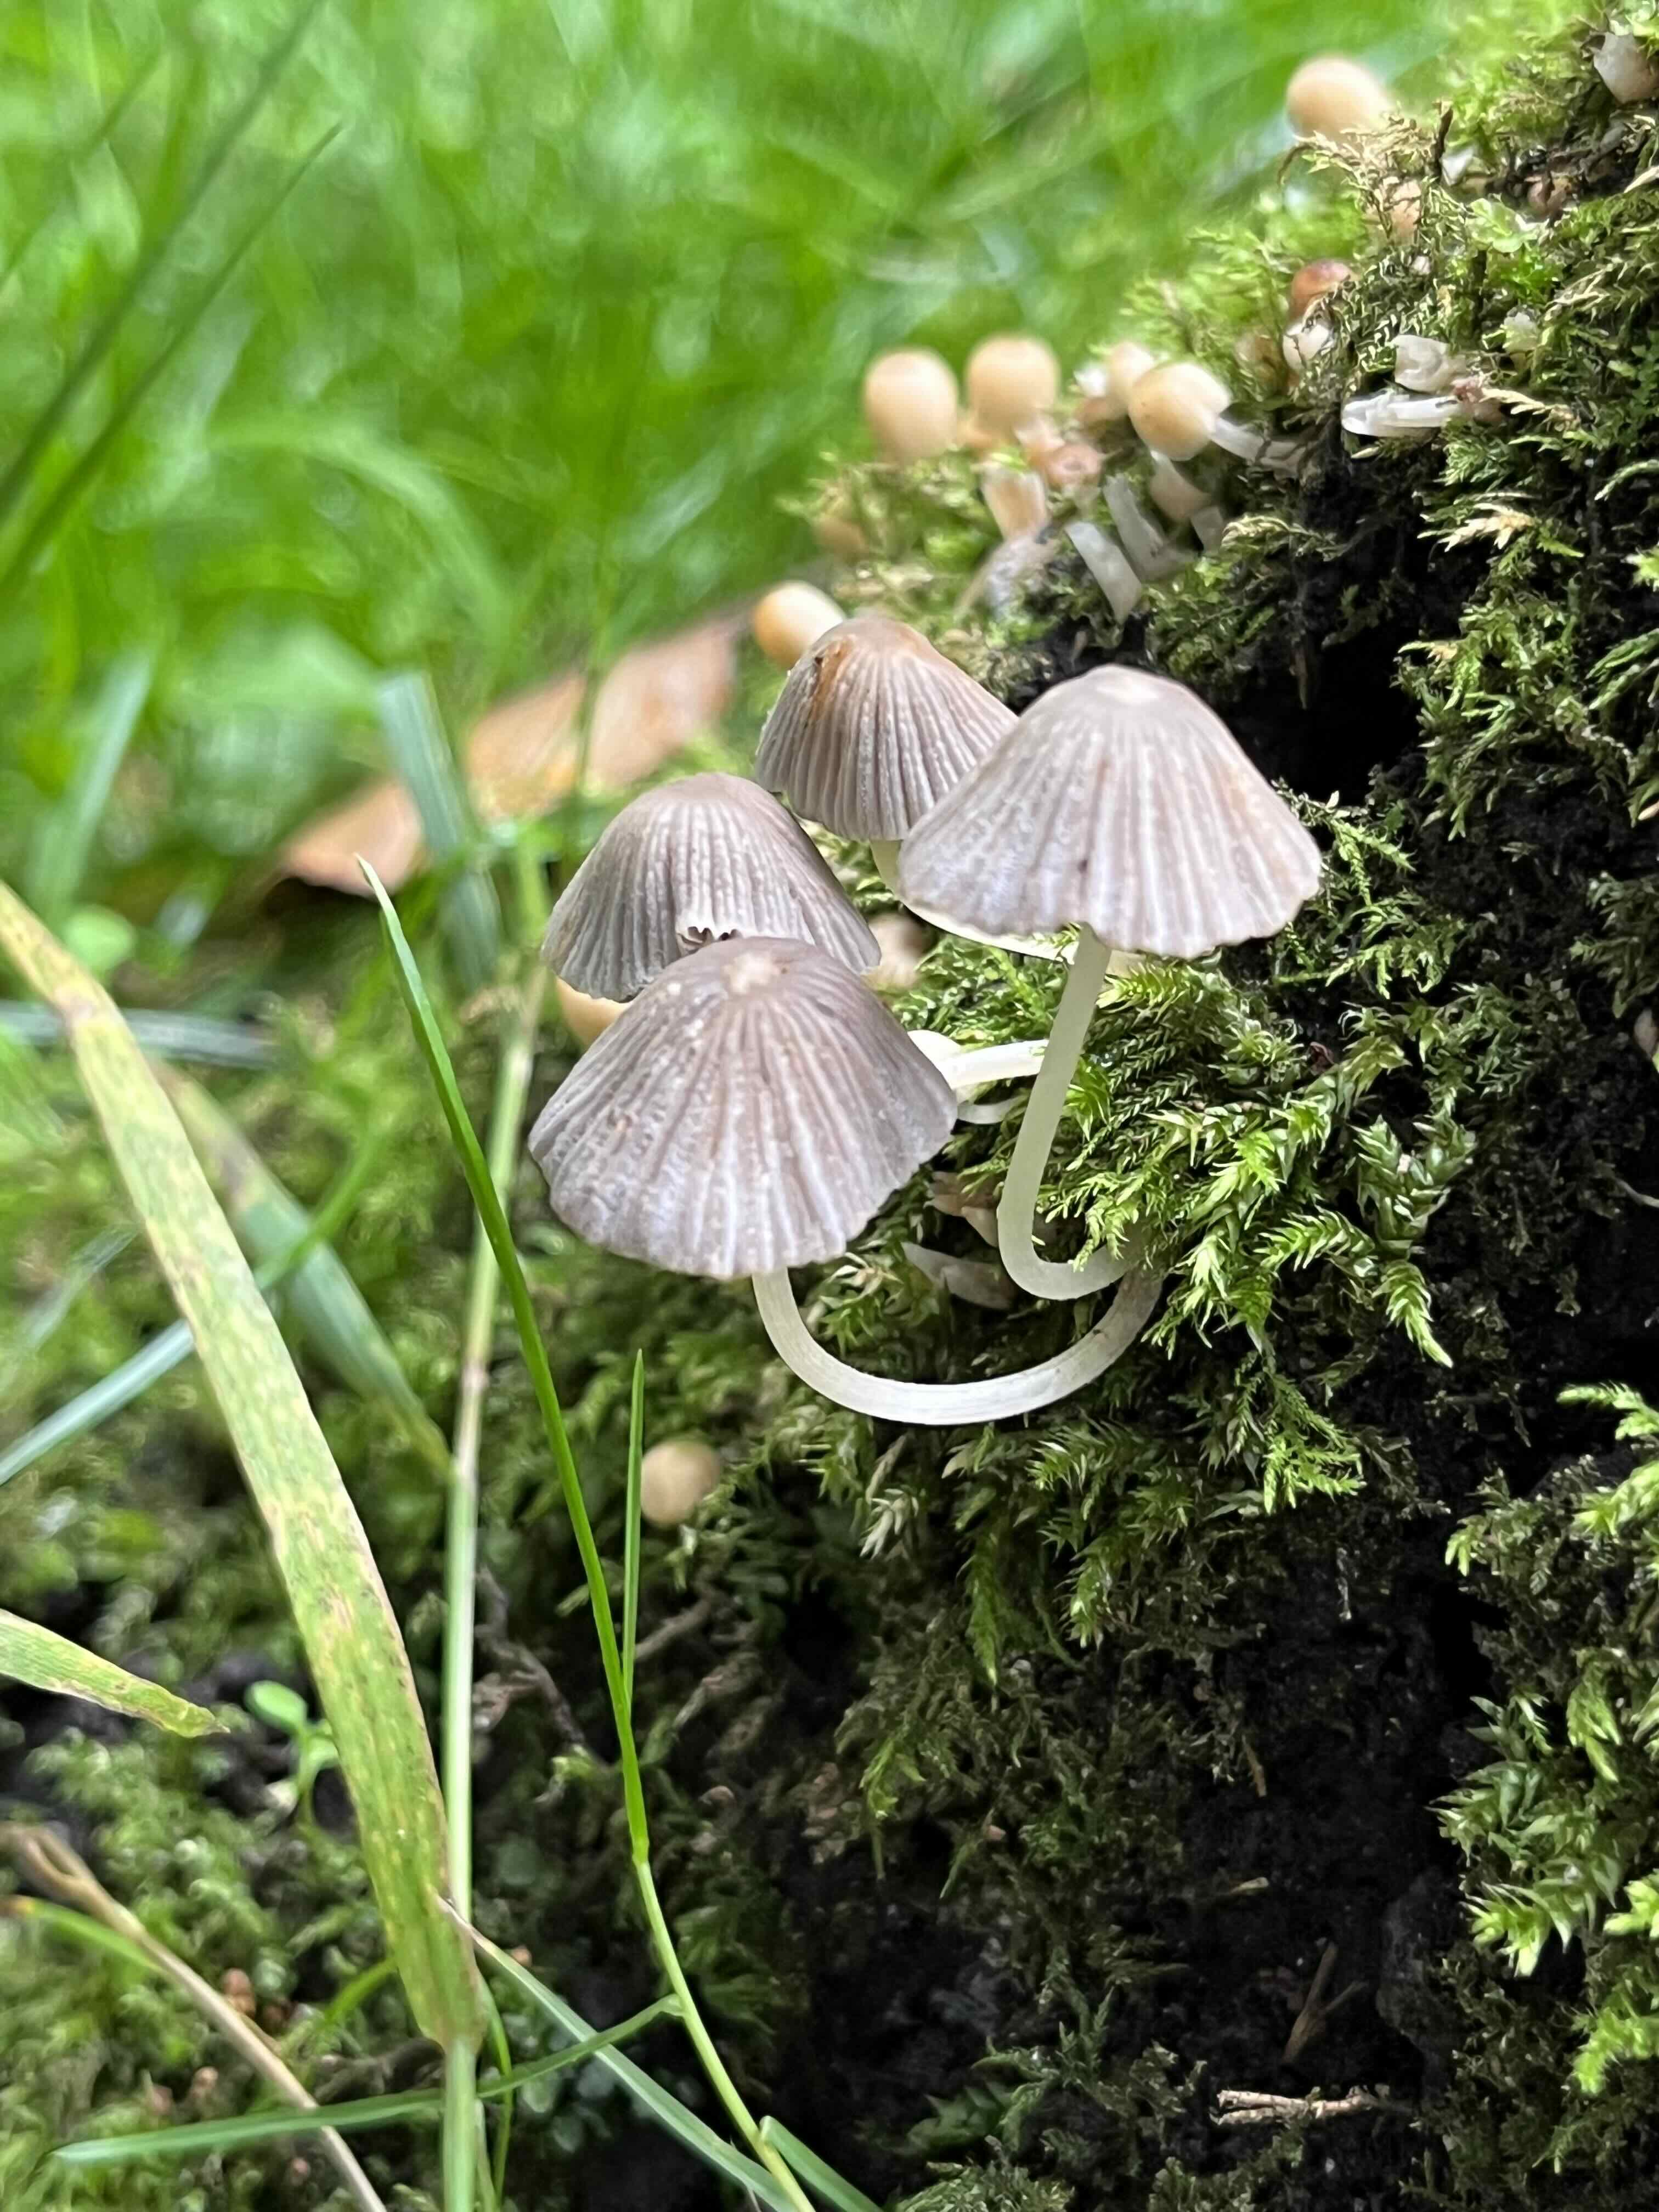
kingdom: Fungi
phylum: Basidiomycota
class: Agaricomycetes
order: Agaricales
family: Psathyrellaceae
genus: Coprinellus
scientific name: Coprinellus disseminatus
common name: bredsået blækhat
